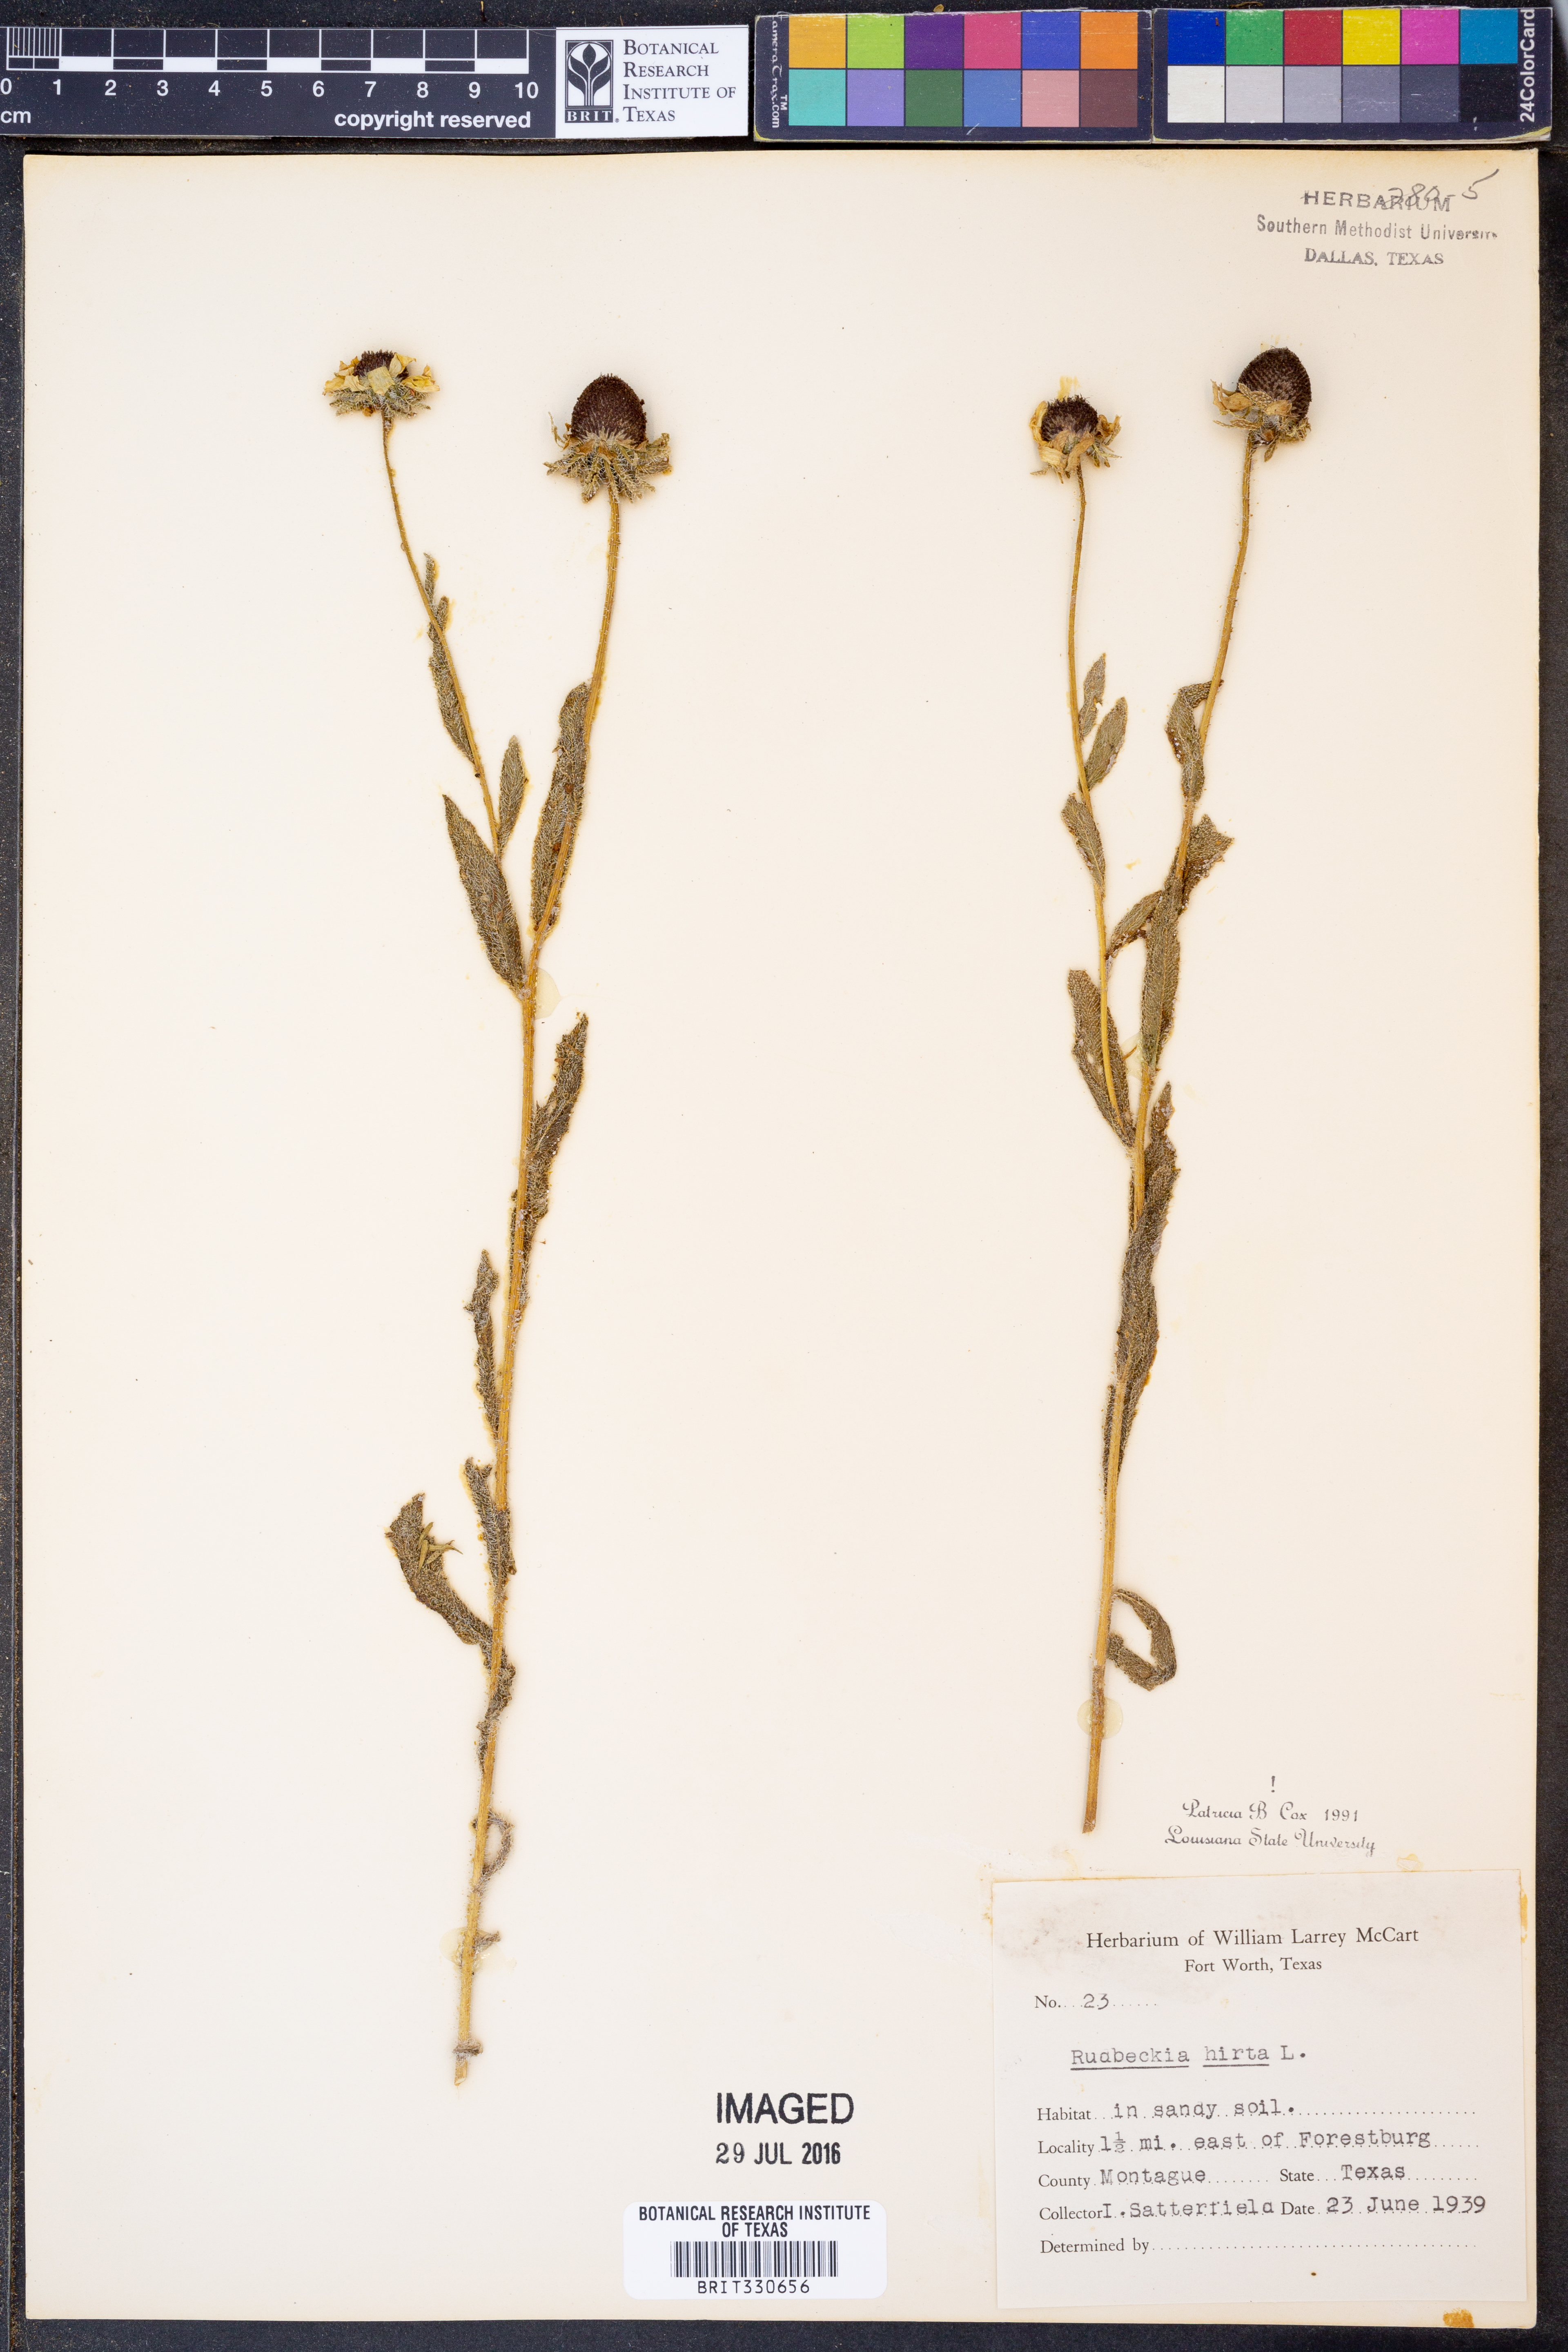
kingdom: Plantae
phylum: Tracheophyta
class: Magnoliopsida
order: Asterales
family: Asteraceae
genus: Rudbeckia
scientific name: Rudbeckia hirta
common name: Black-eyed-susan
